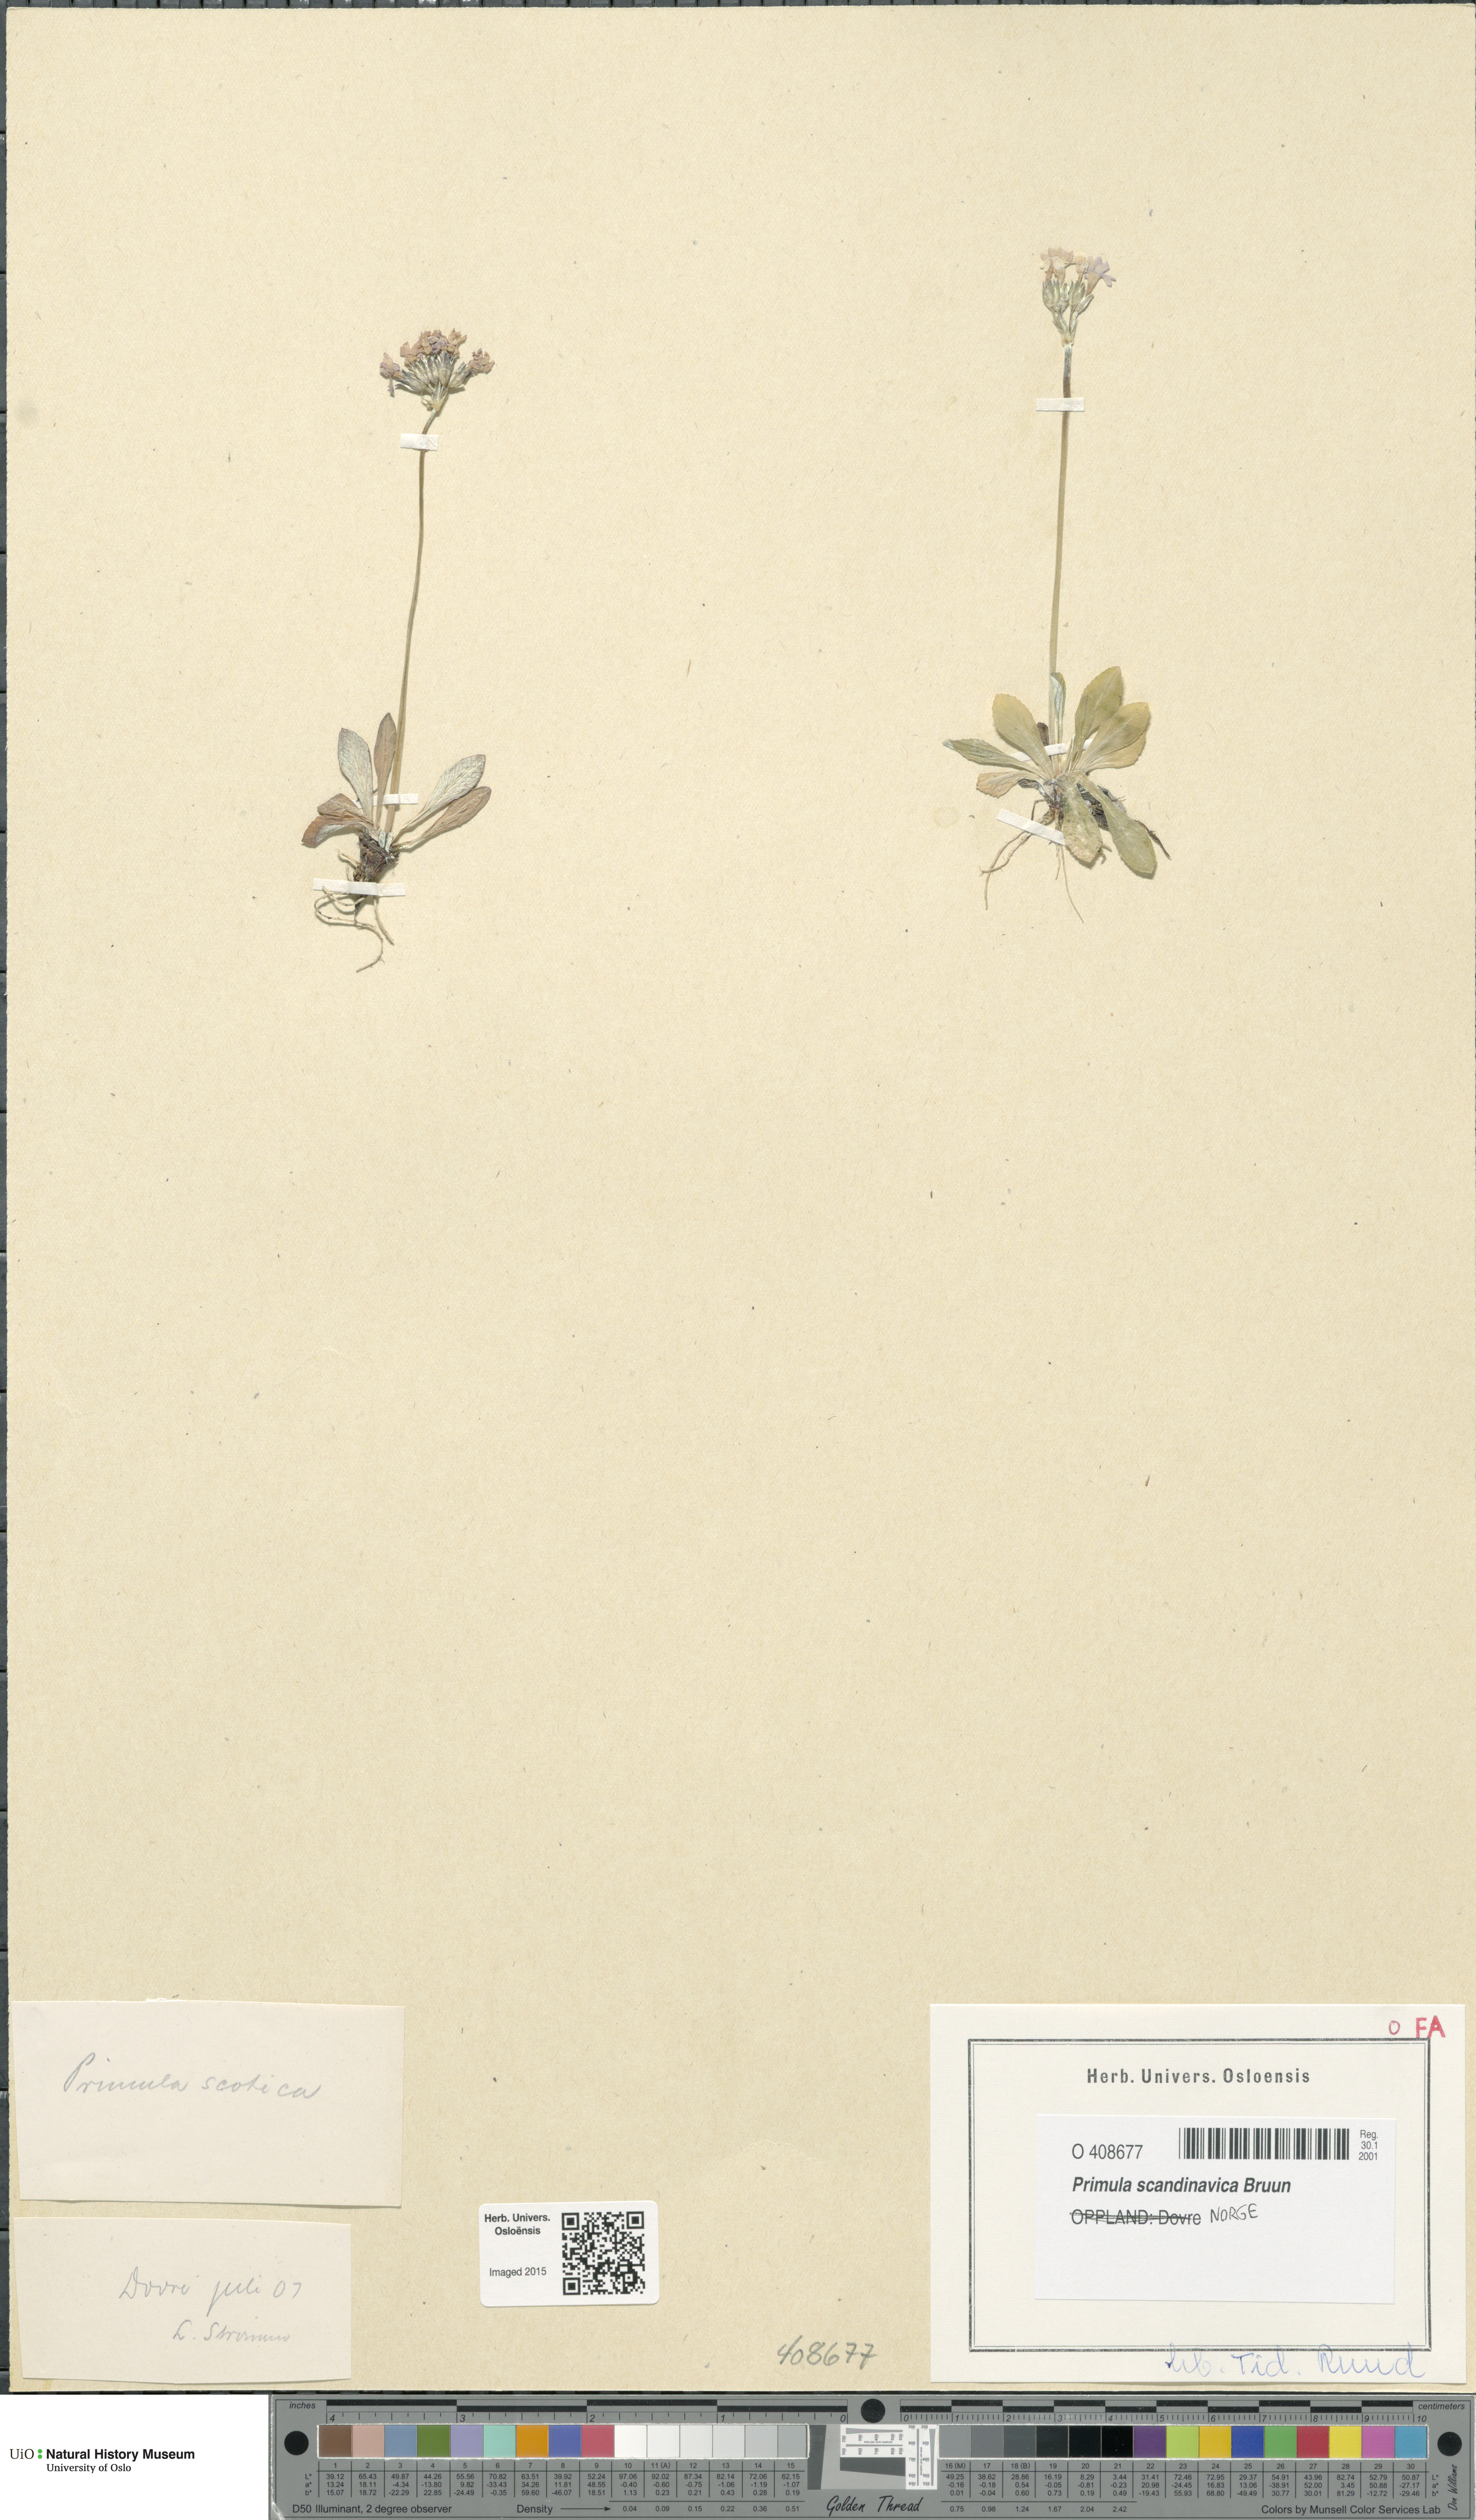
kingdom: Plantae
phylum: Tracheophyta
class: Magnoliopsida
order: Ericales
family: Primulaceae
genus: Primula
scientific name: Primula scandinavica
